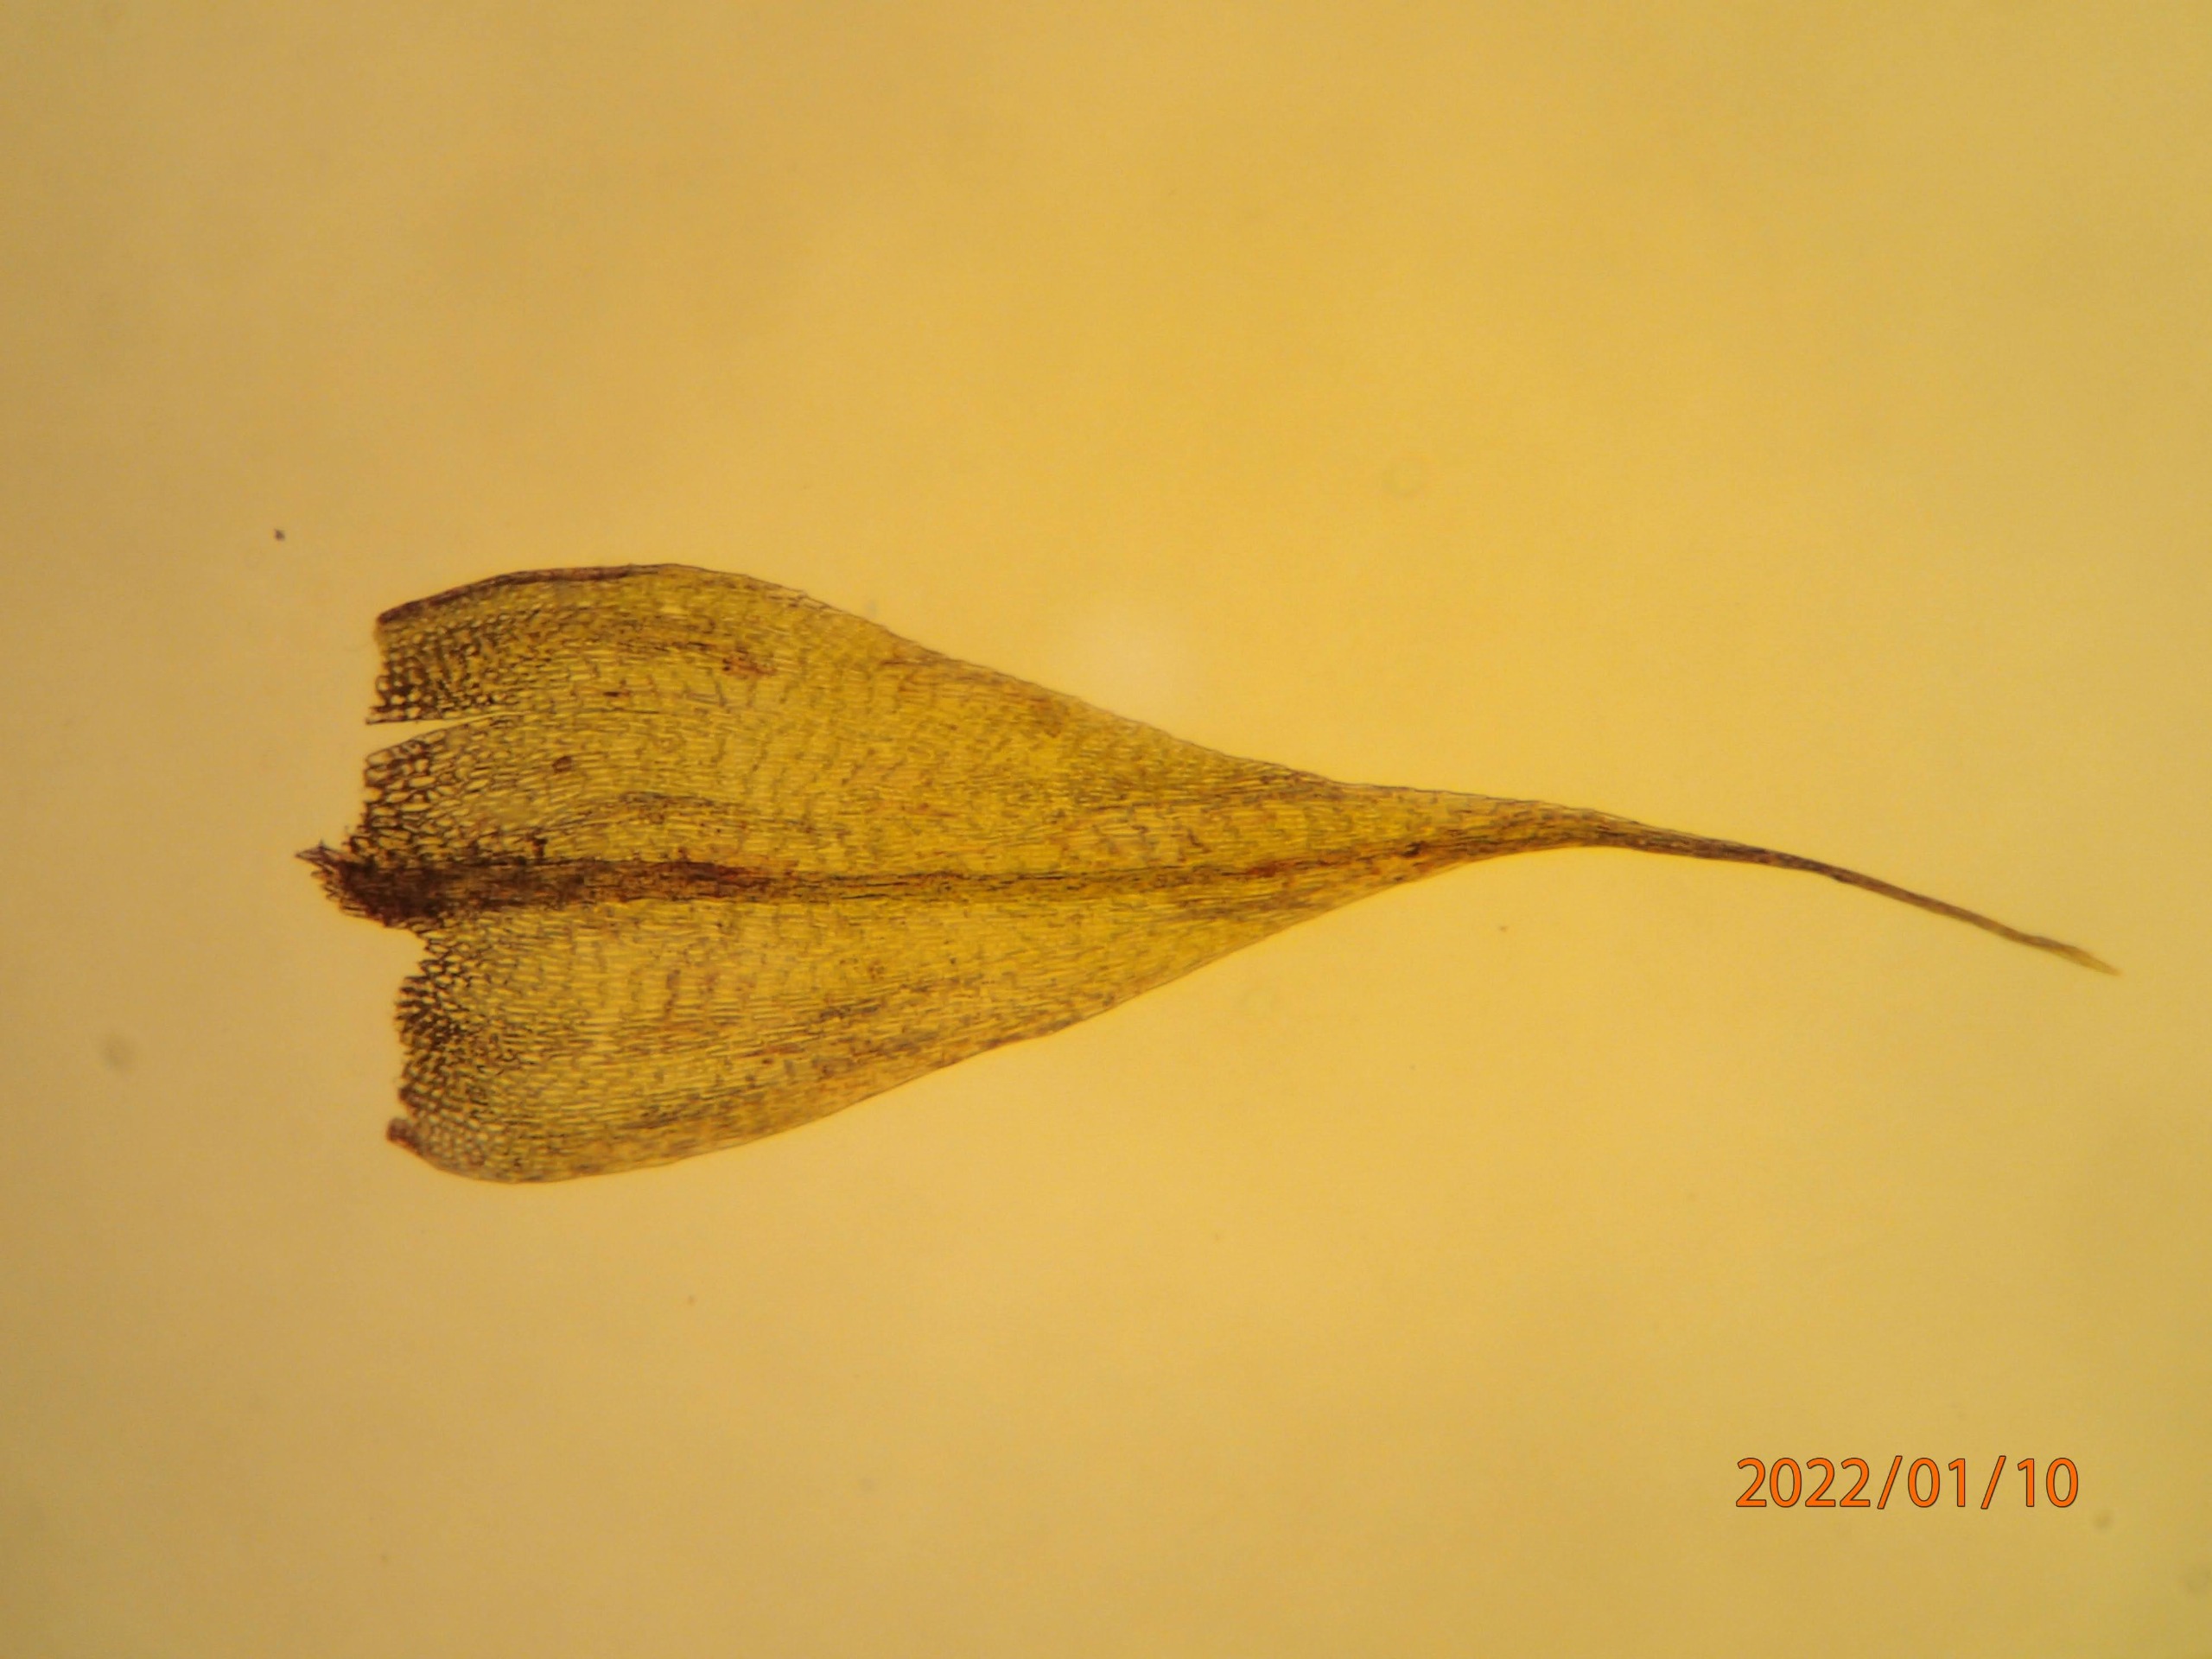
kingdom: Plantae
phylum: Bryophyta
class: Bryopsida
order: Hypnales
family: Brachytheciaceae
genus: Sciuro-hypnum
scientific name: Sciuro-hypnum populeum
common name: Park-kortkapsel
